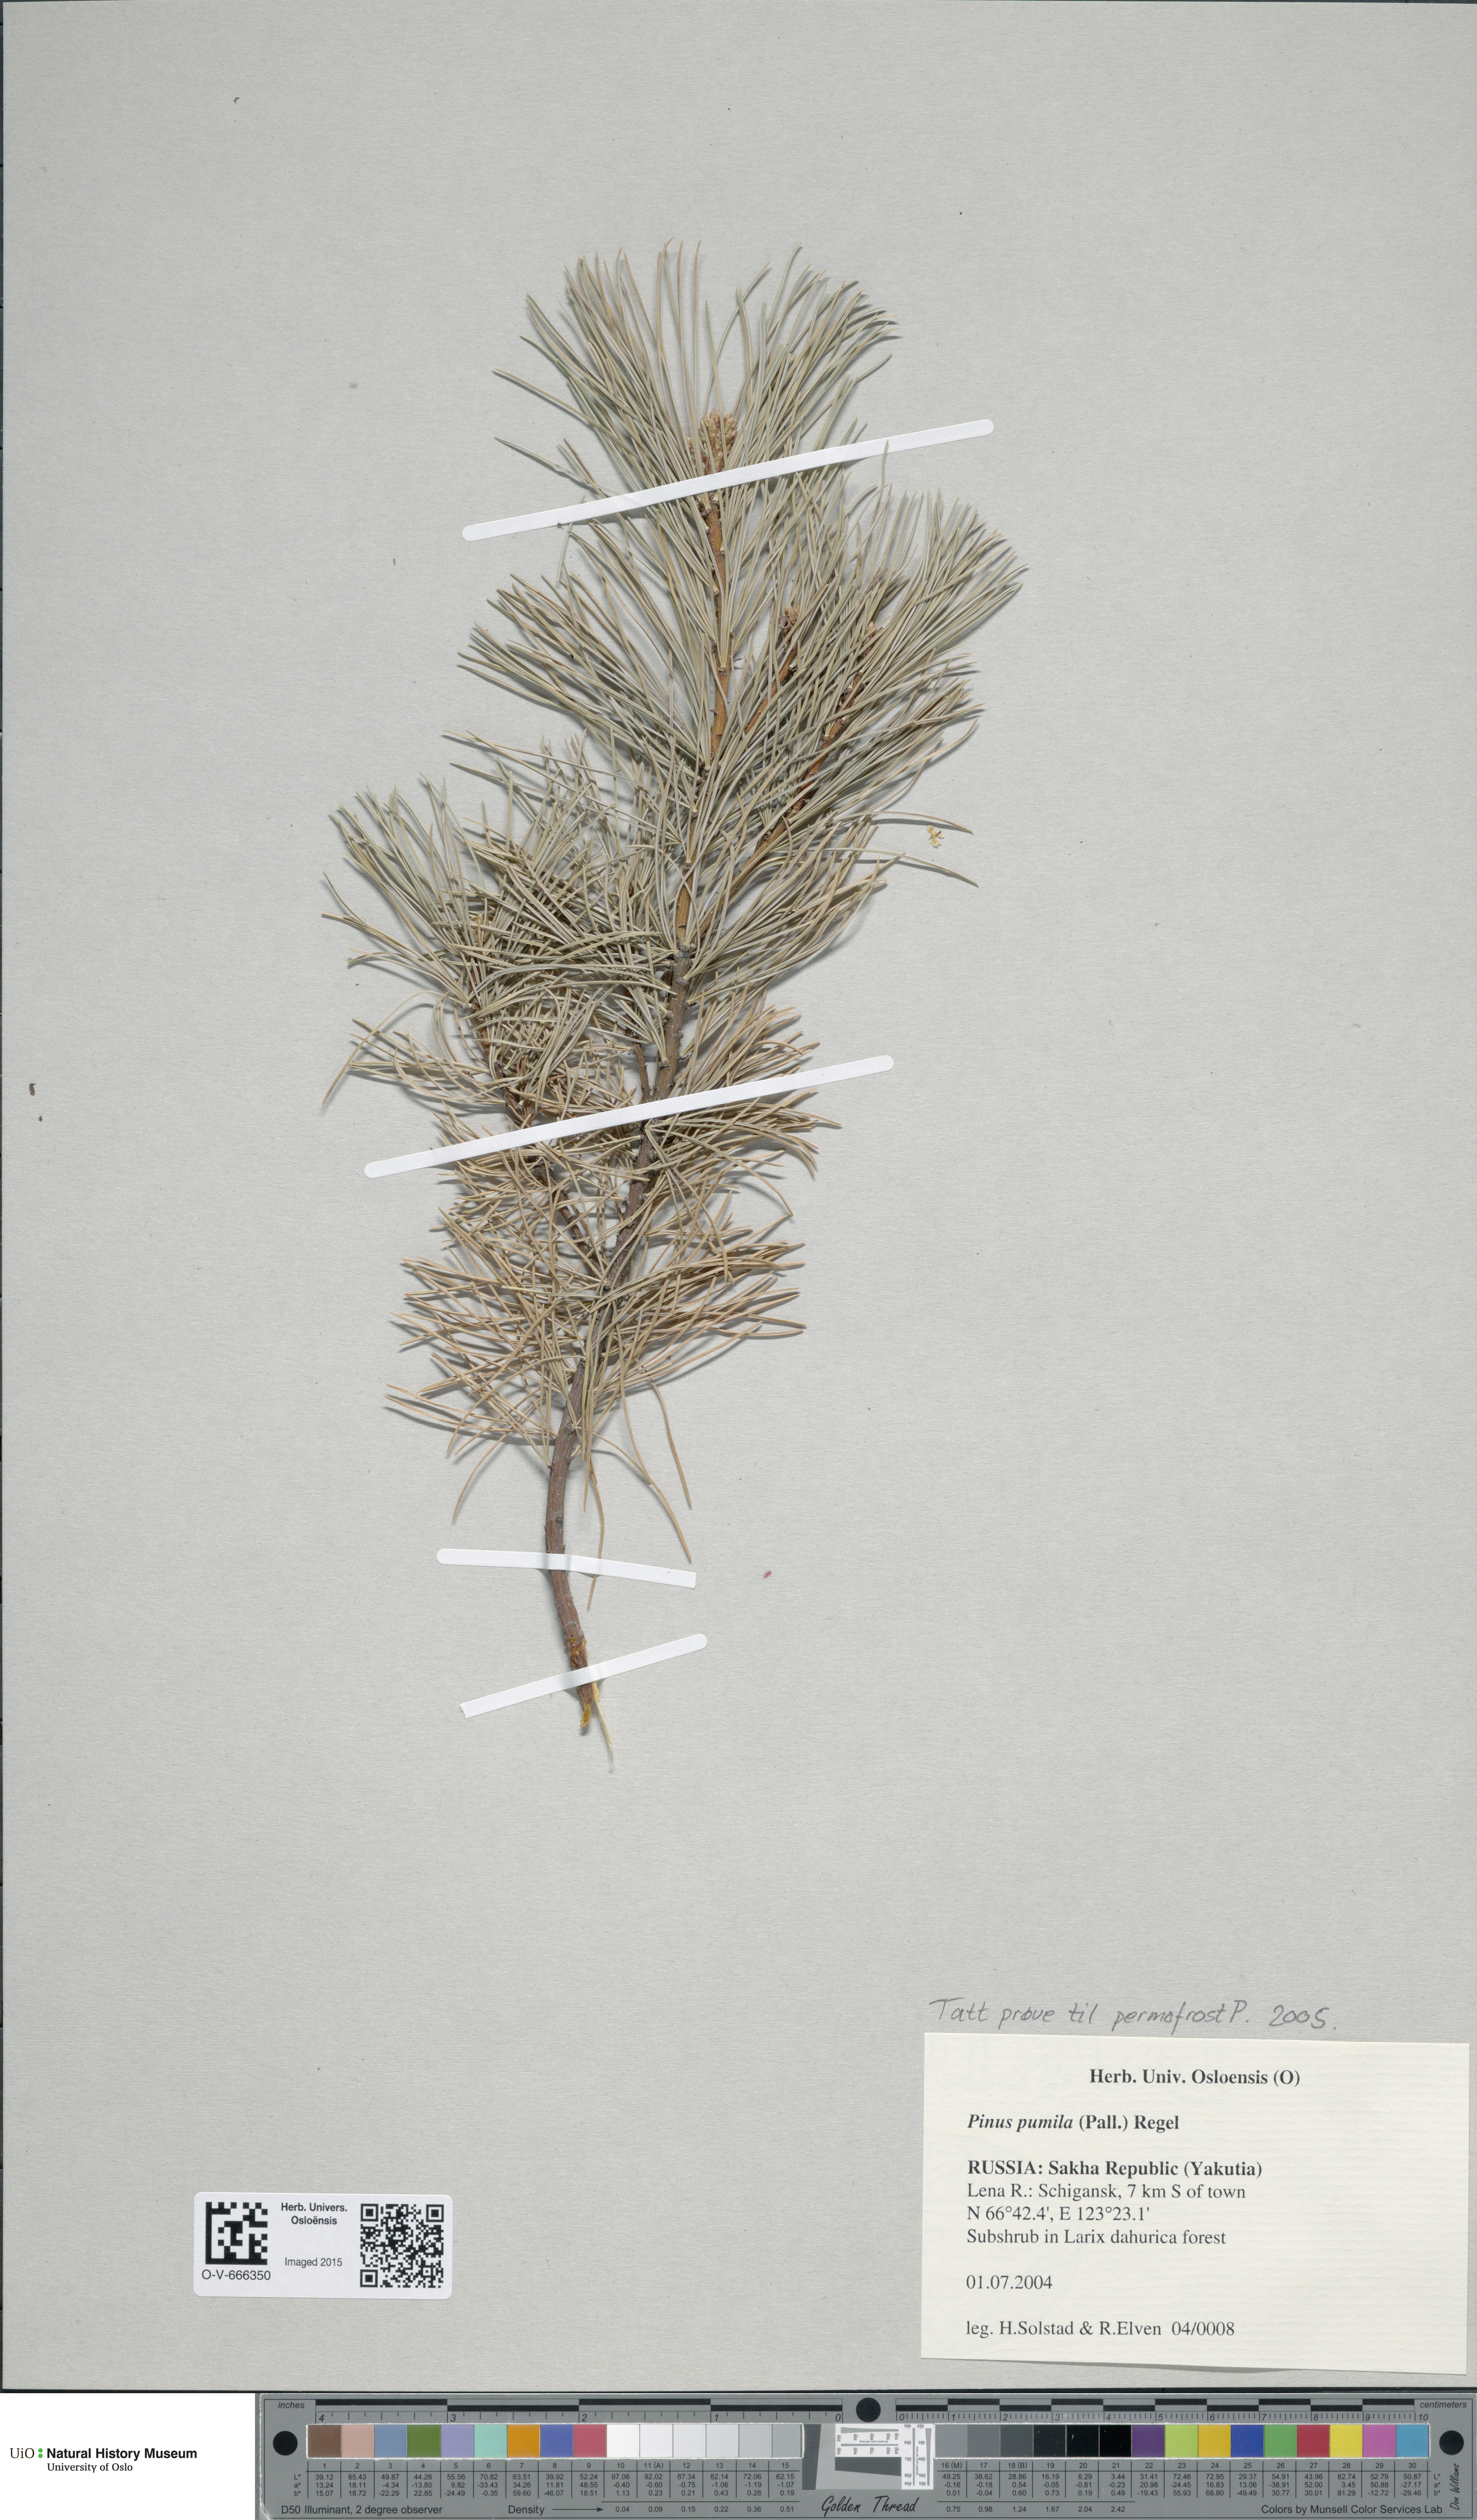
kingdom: Plantae
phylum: Tracheophyta
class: Pinopsida
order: Pinales
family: Pinaceae
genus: Pinus
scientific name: Pinus pumila
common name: Dwarf siberian pine
